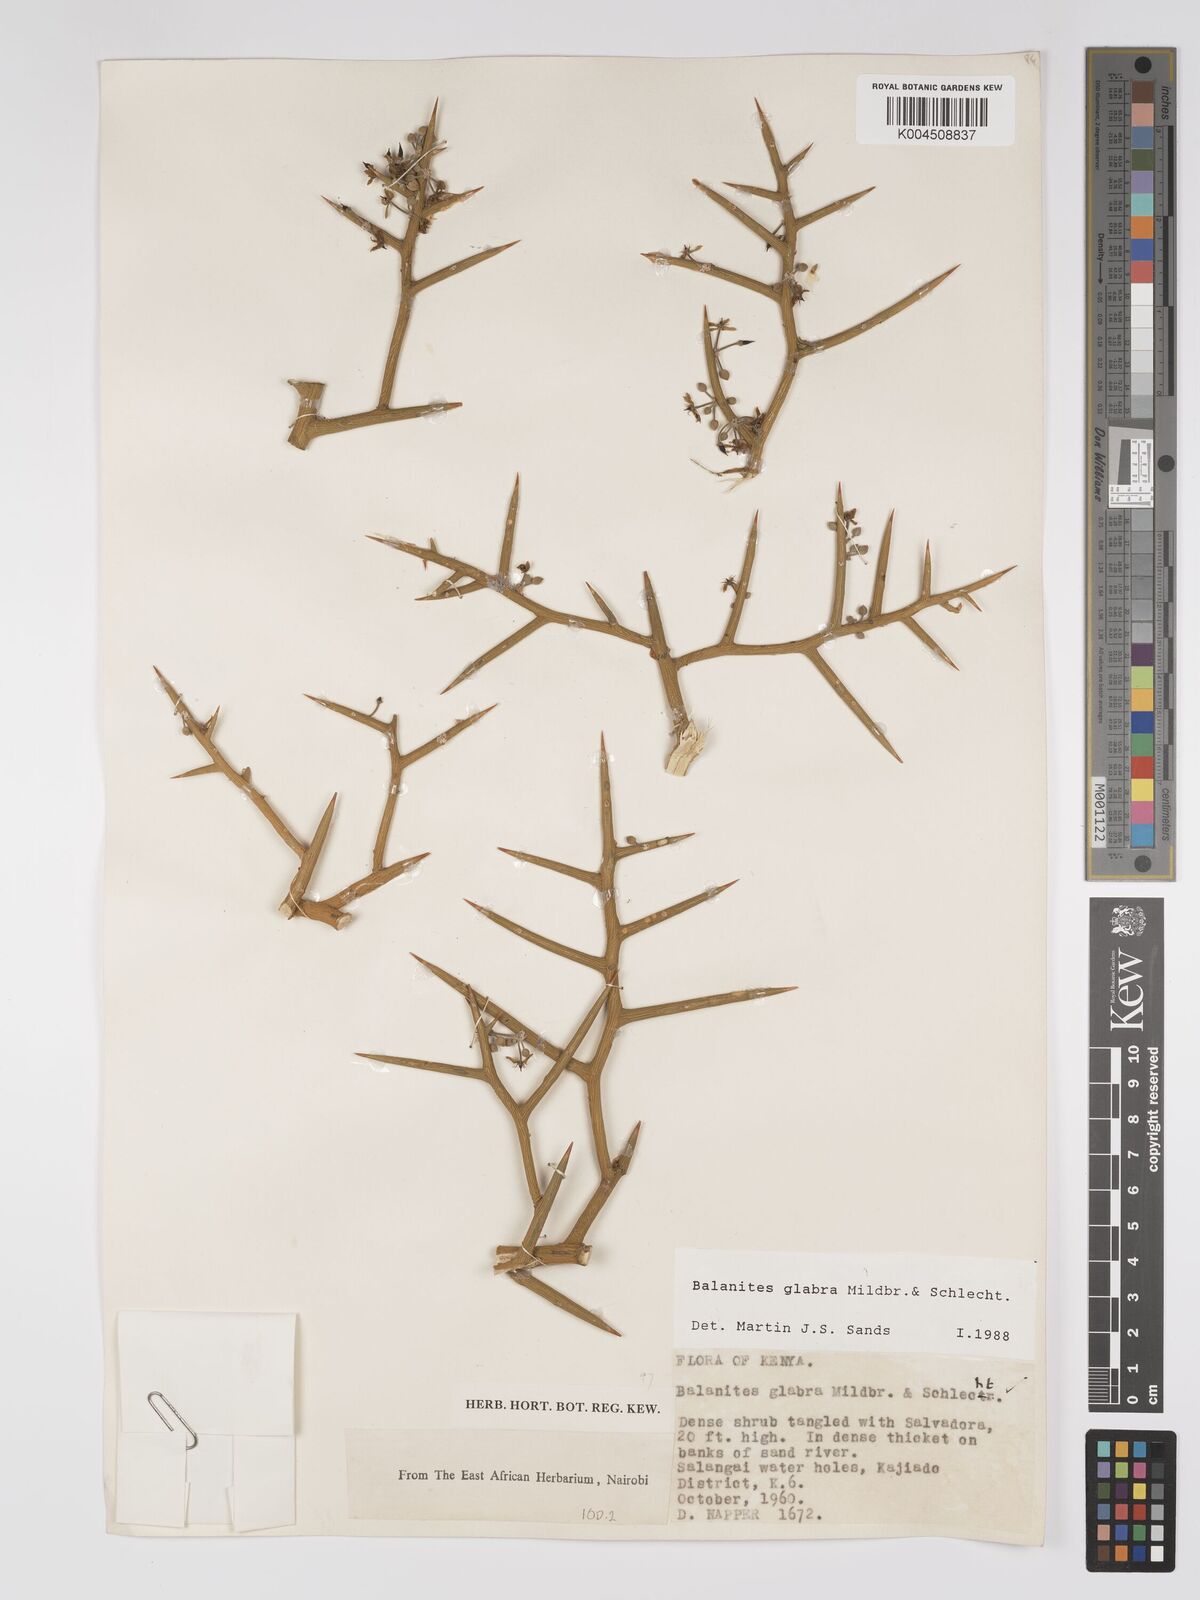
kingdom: Plantae
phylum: Tracheophyta
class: Magnoliopsida
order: Zygophyllales
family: Zygophyllaceae
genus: Balanites
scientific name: Balanites glabra
